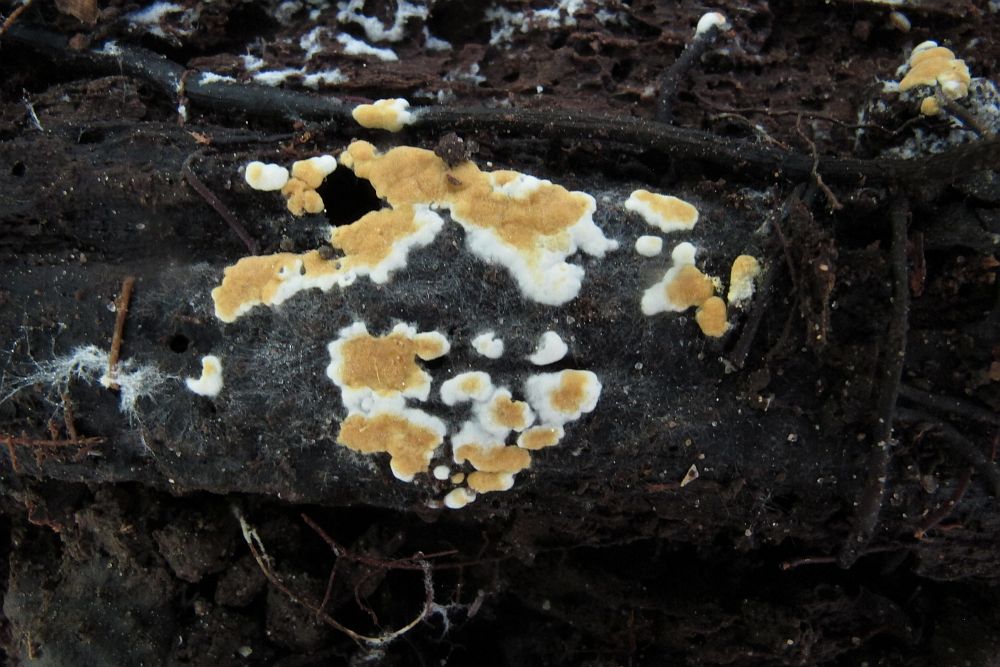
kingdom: Fungi
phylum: Basidiomycota
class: Agaricomycetes
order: Cantharellales
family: Botryobasidiaceae
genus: Botryobasidium
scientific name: Botryobasidium aureum
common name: gylden spindhinde
